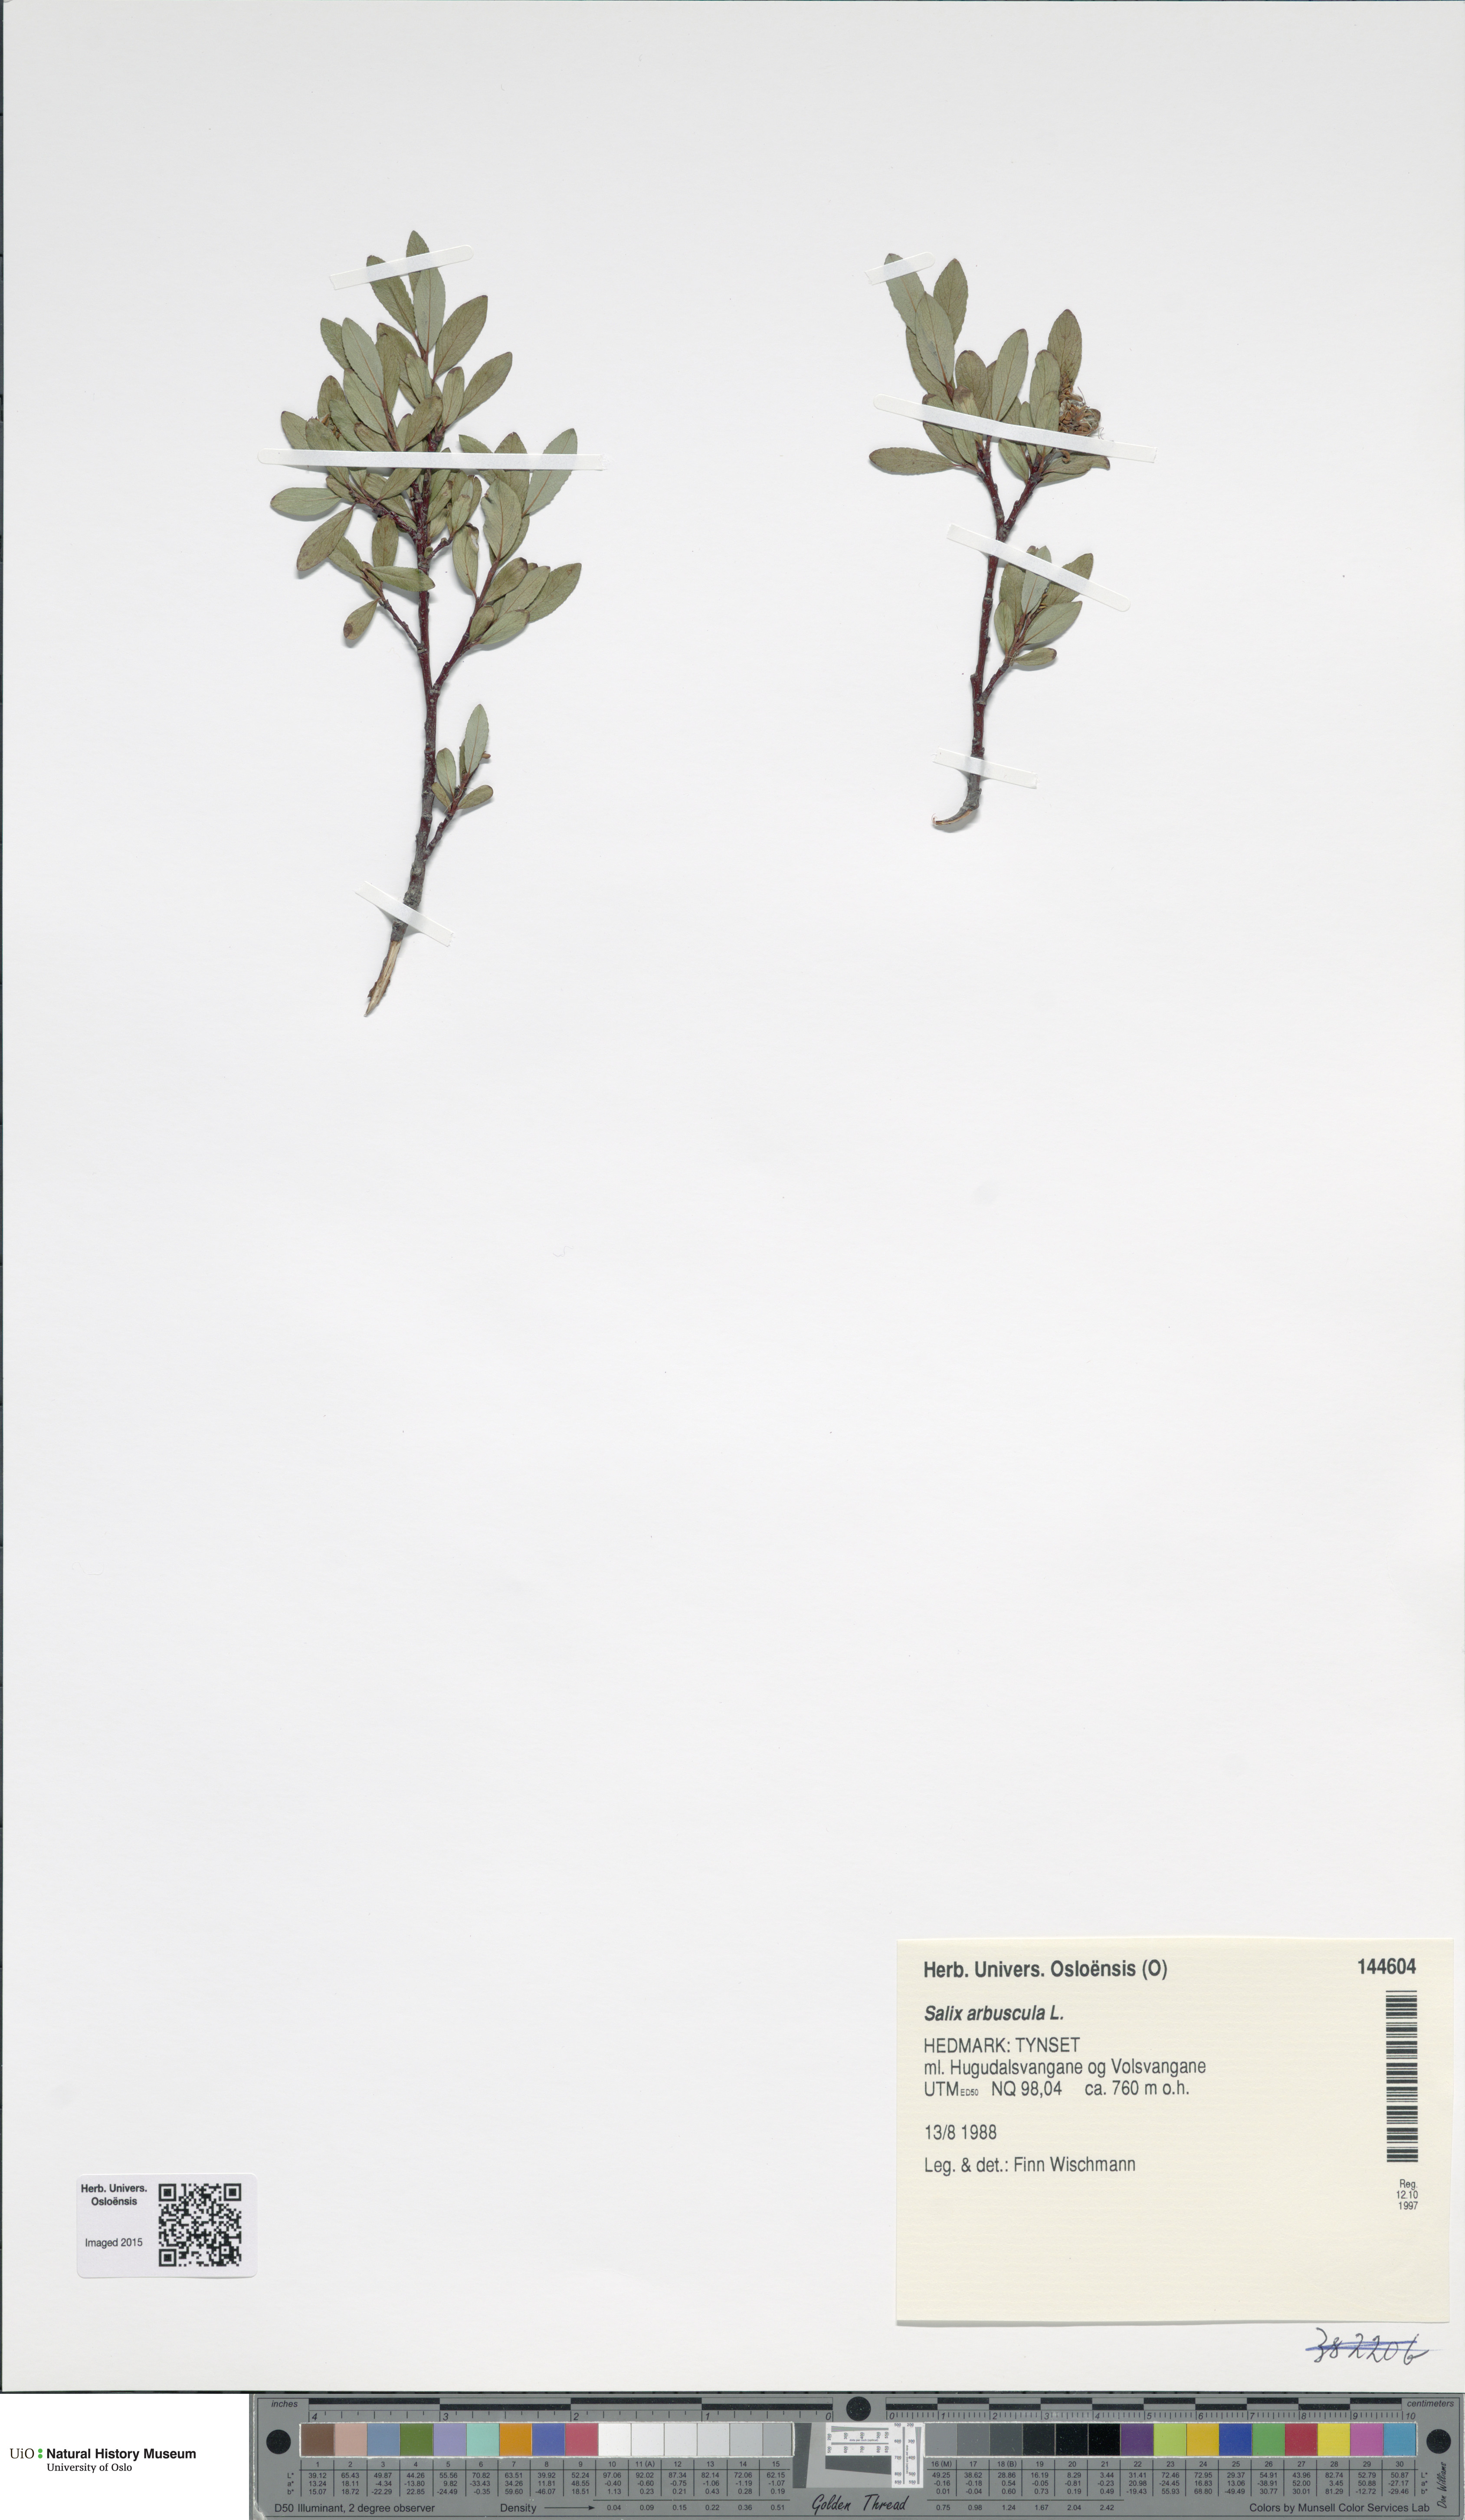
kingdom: Plantae
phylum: Tracheophyta
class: Magnoliopsida
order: Malpighiales
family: Salicaceae
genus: Salix
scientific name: Salix arbuscula
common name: Mountain willow
